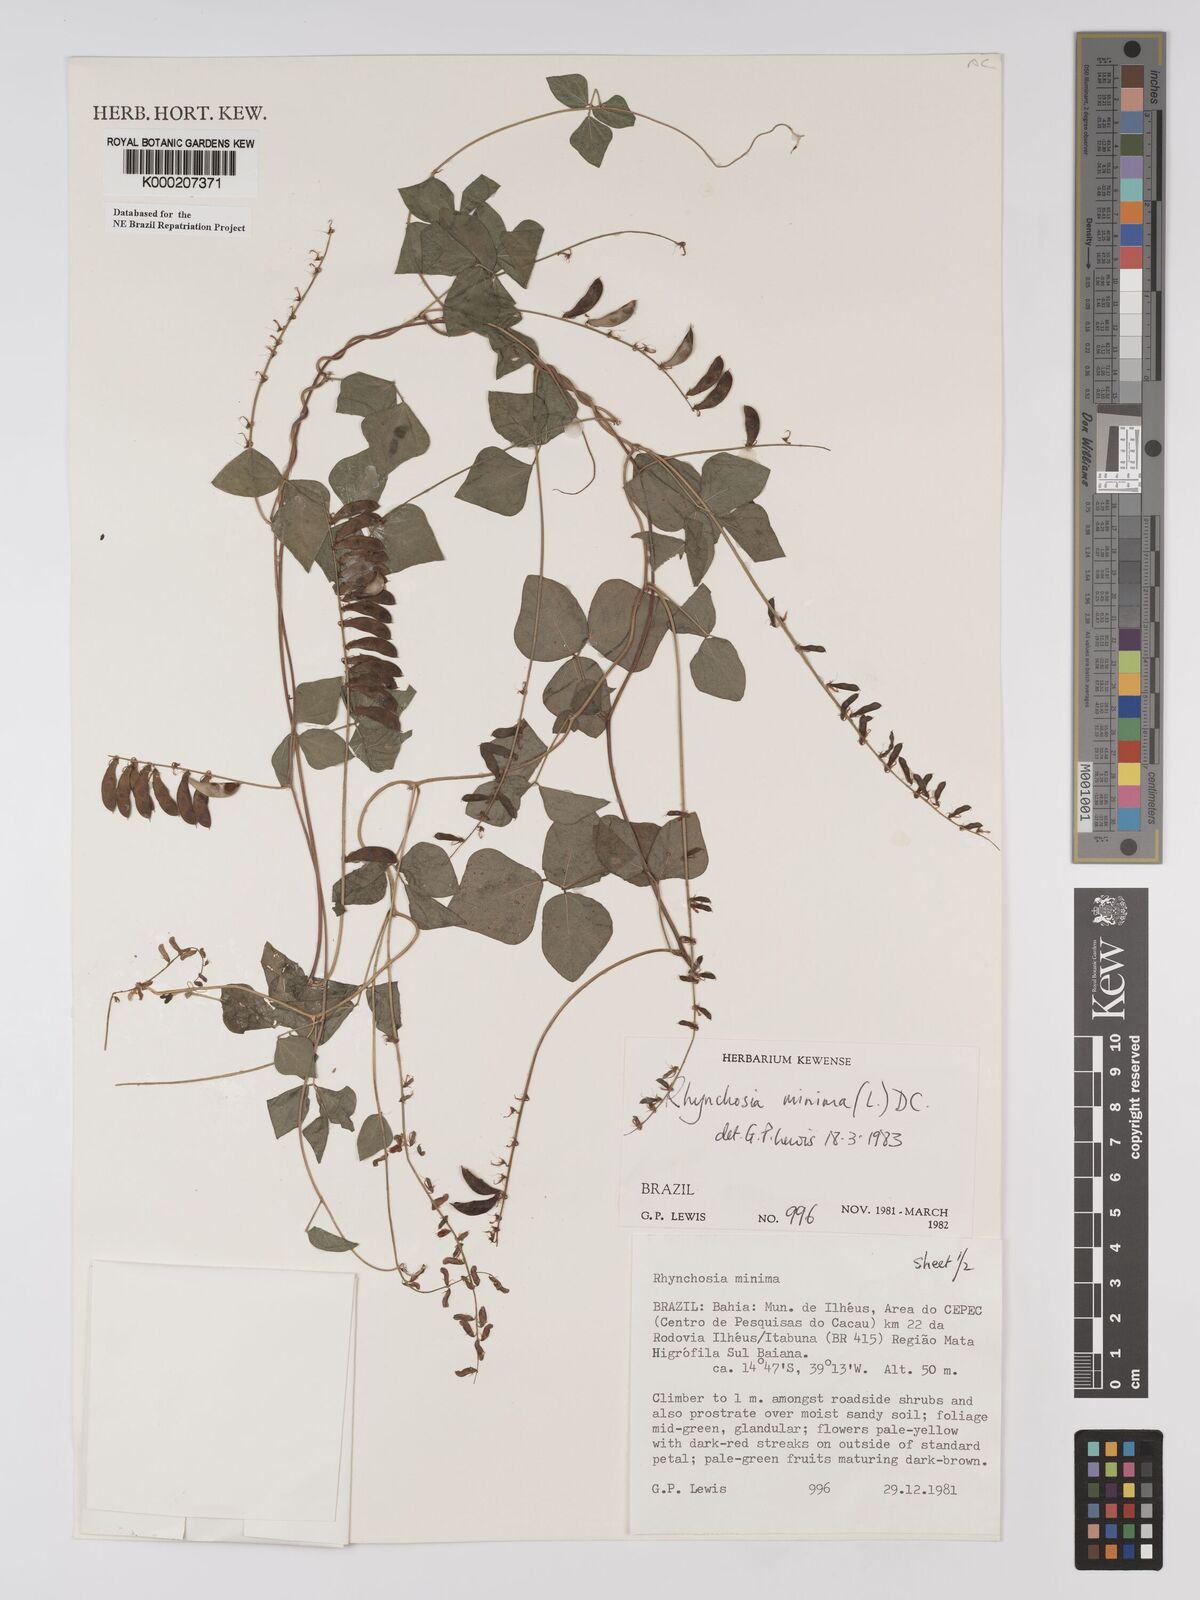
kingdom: Plantae
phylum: Tracheophyta
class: Magnoliopsida
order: Fabales
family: Fabaceae
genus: Rhynchosia
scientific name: Rhynchosia minima
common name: Least snoutbean
